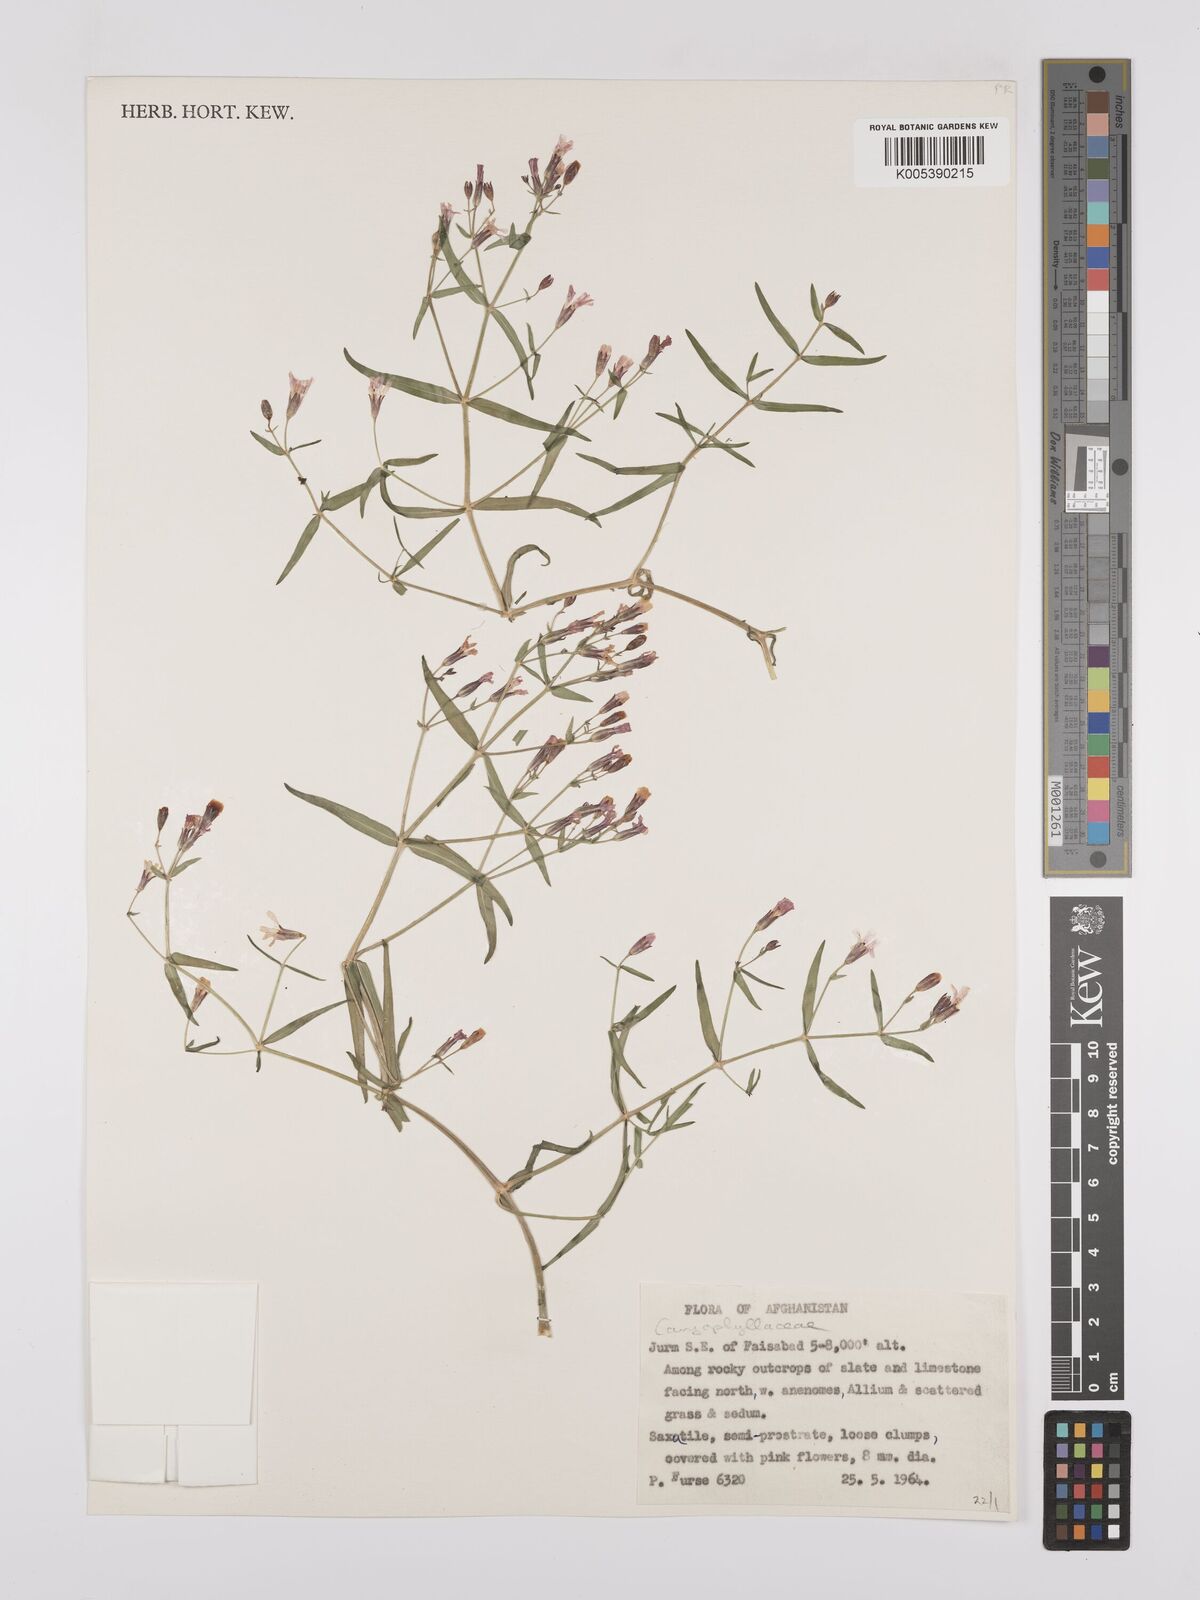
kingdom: Plantae
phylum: Tracheophyta
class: Magnoliopsida
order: Caryophyllales
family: Caryophyllaceae
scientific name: Caryophyllaceae
